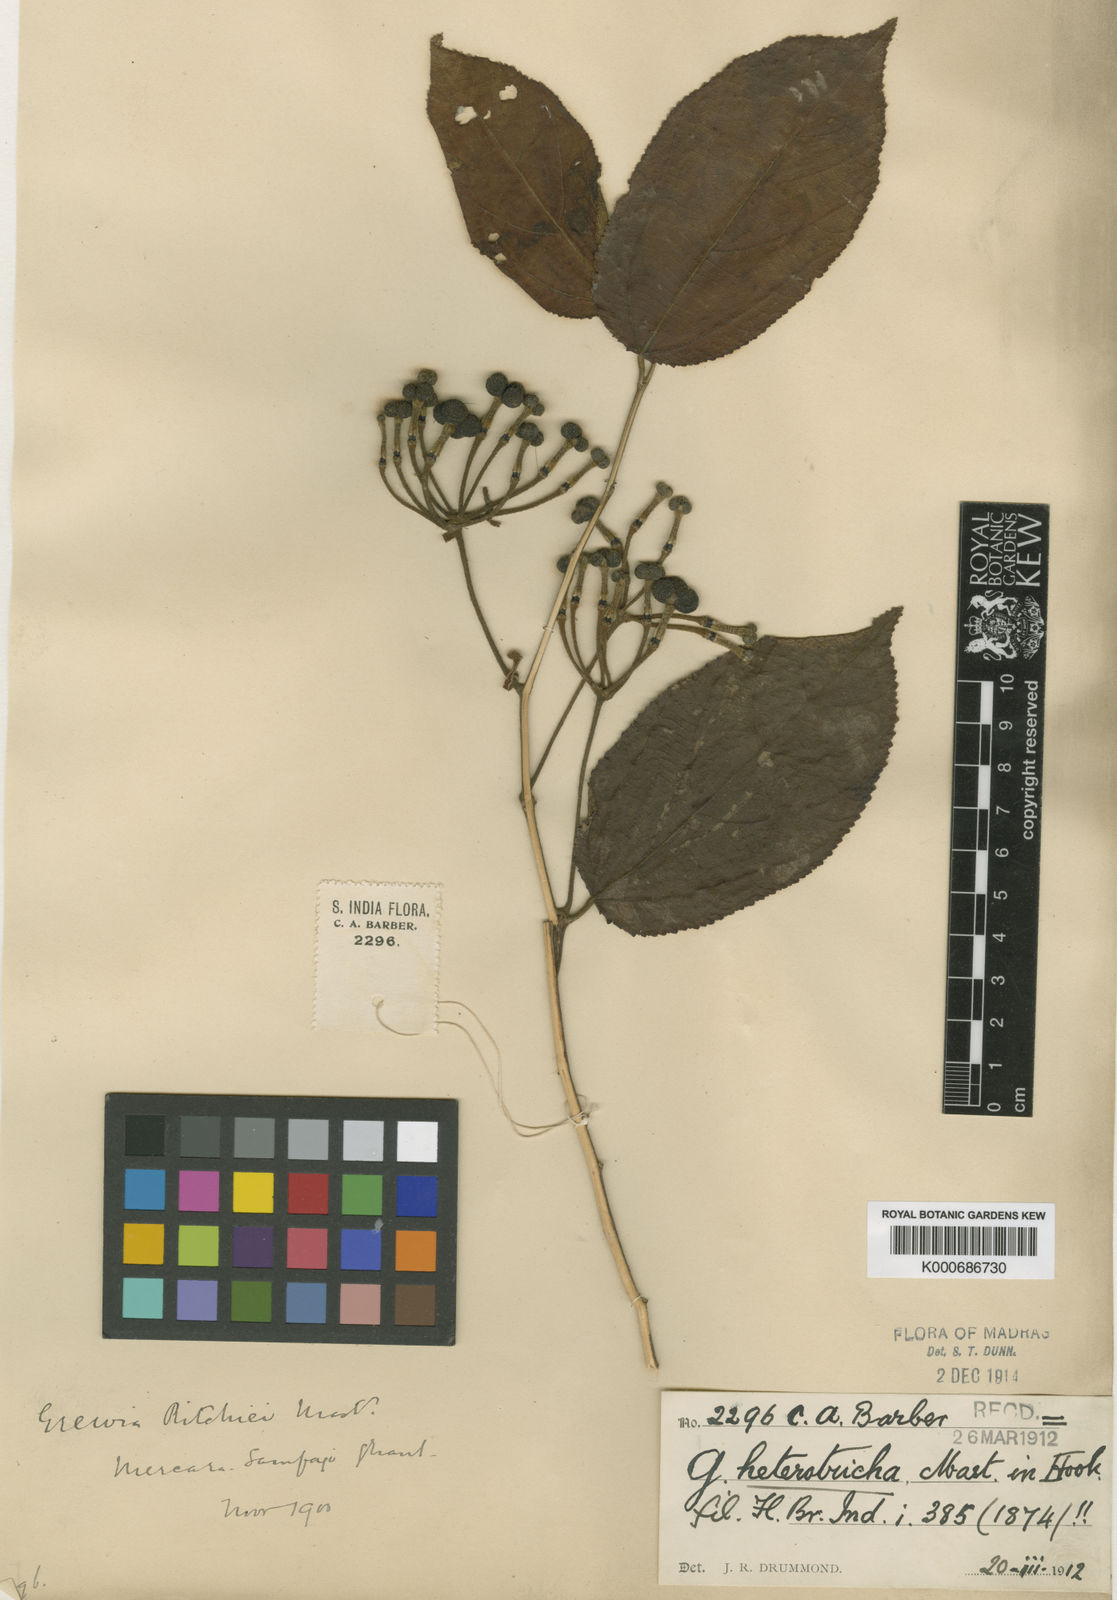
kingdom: Plantae
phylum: Tracheophyta
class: Magnoliopsida
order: Malvales
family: Malvaceae
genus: Grewia
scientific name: Grewia heterotricha
